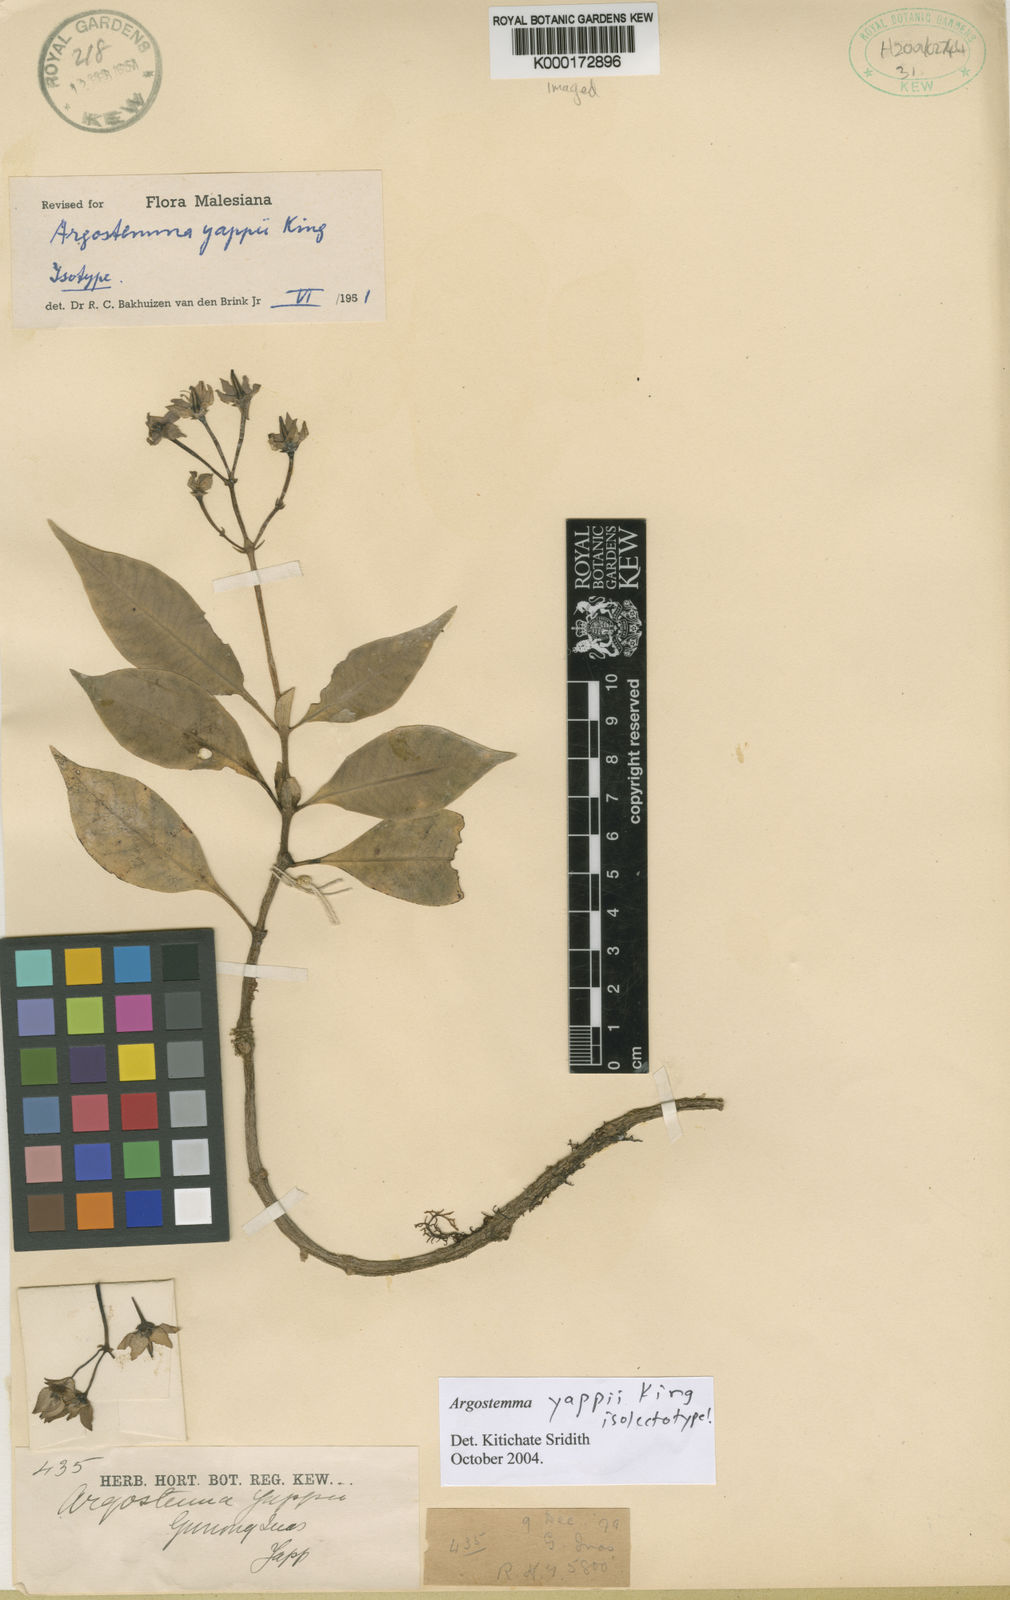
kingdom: Plantae
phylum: Tracheophyta
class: Magnoliopsida
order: Gentianales
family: Rubiaceae
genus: Argostemma
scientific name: Argostemma yappii
